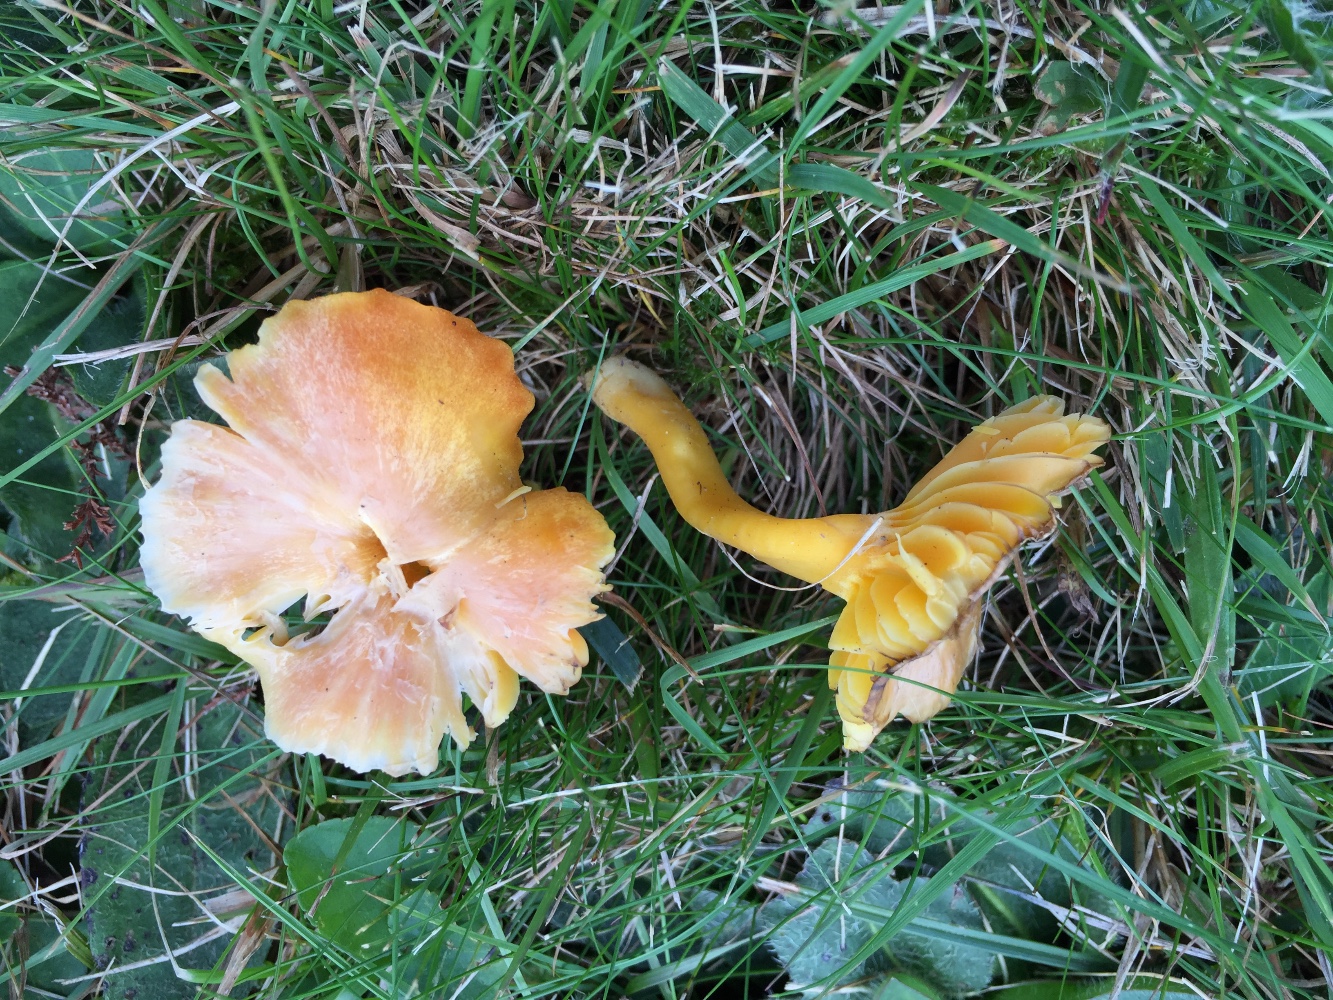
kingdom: Fungi
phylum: Basidiomycota
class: Agaricomycetes
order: Agaricales
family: Hygrophoraceae
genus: Hygrocybe
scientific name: Hygrocybe reidii
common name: honning-vokshat
